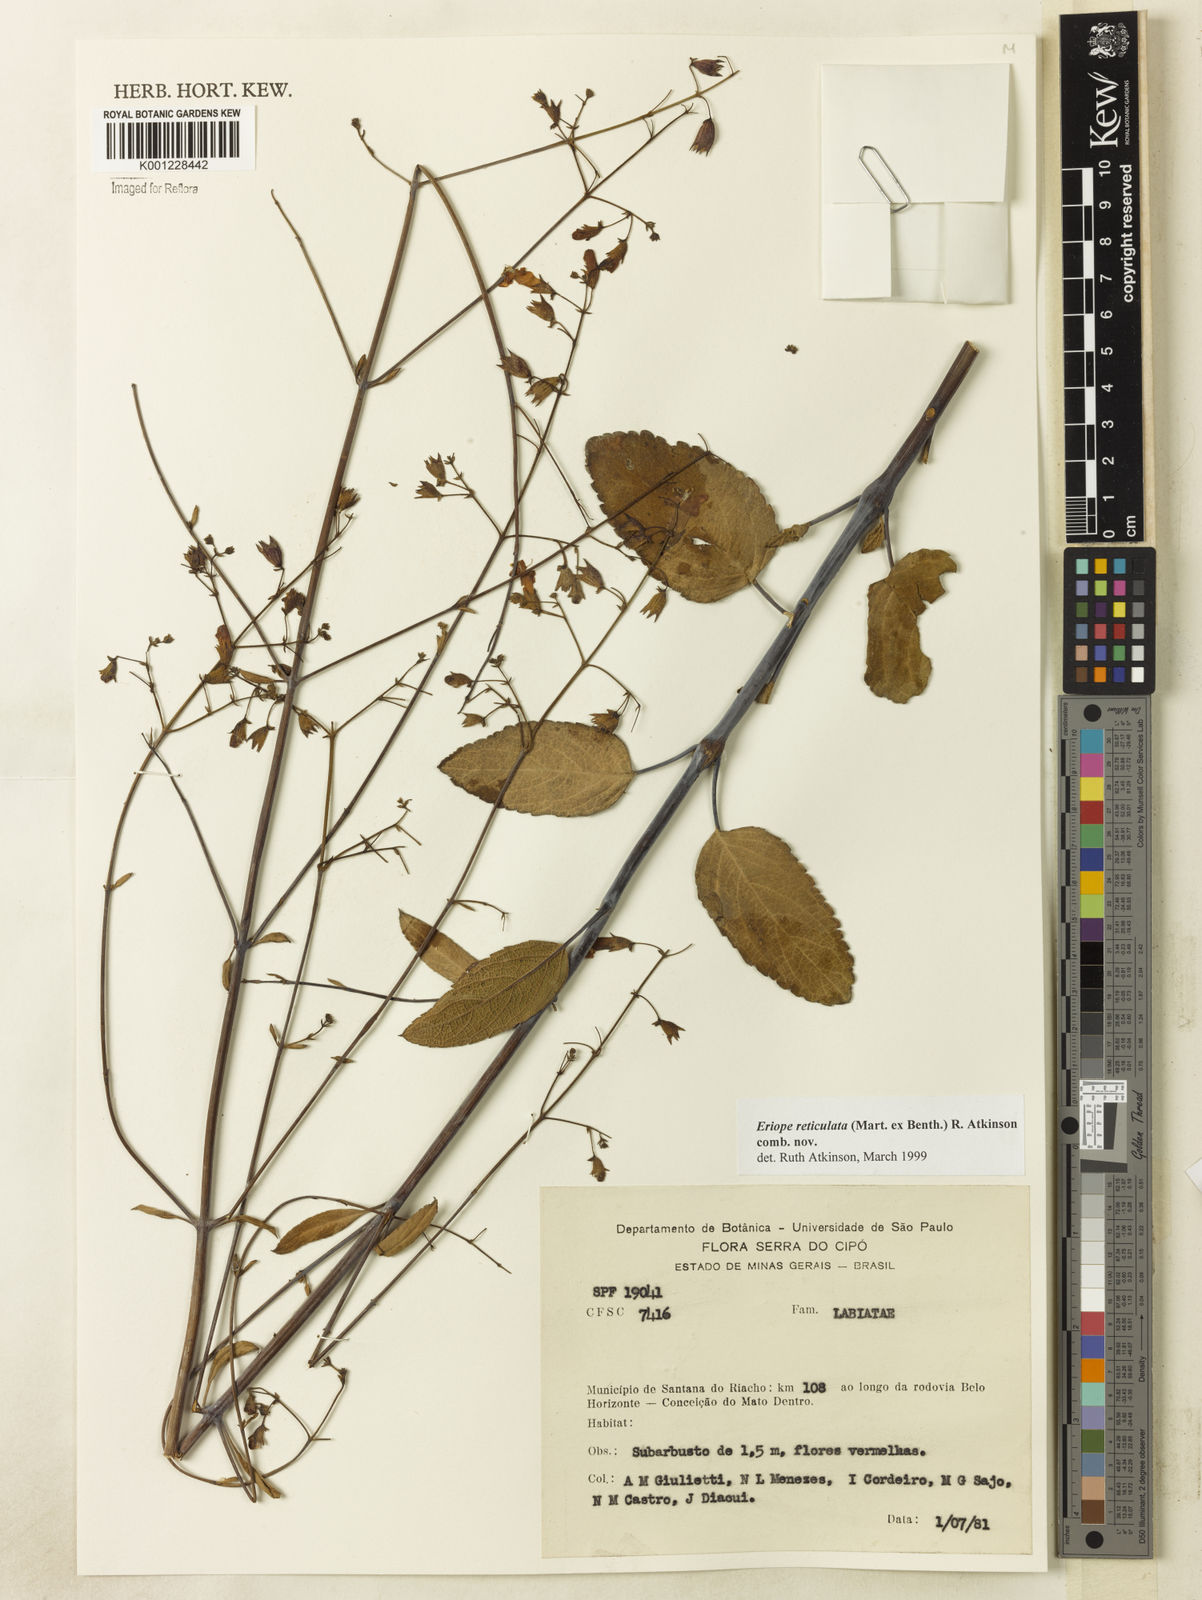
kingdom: Plantae
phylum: Tracheophyta
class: Magnoliopsida
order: Lamiales
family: Lamiaceae
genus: Hypenia
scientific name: Hypenia reticulata
